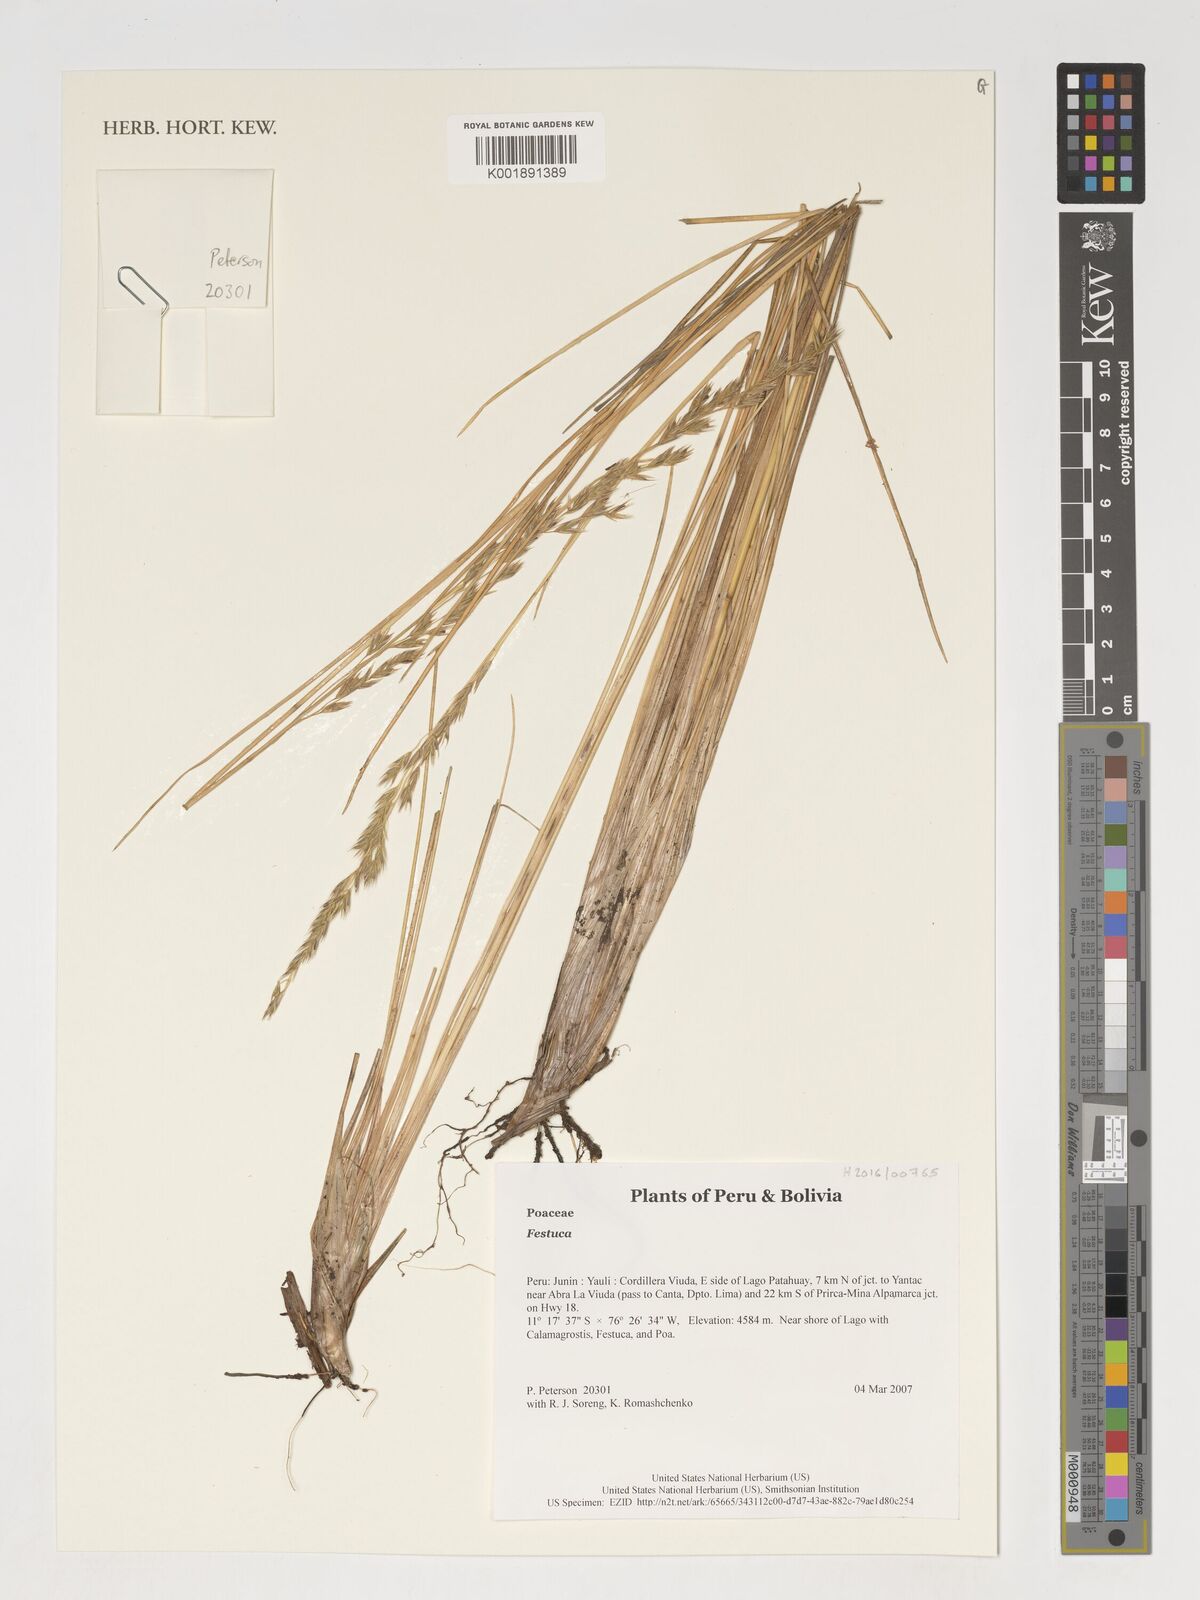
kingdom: Plantae
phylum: Tracheophyta
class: Liliopsida
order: Poales
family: Poaceae
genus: Festuca
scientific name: Festuca
